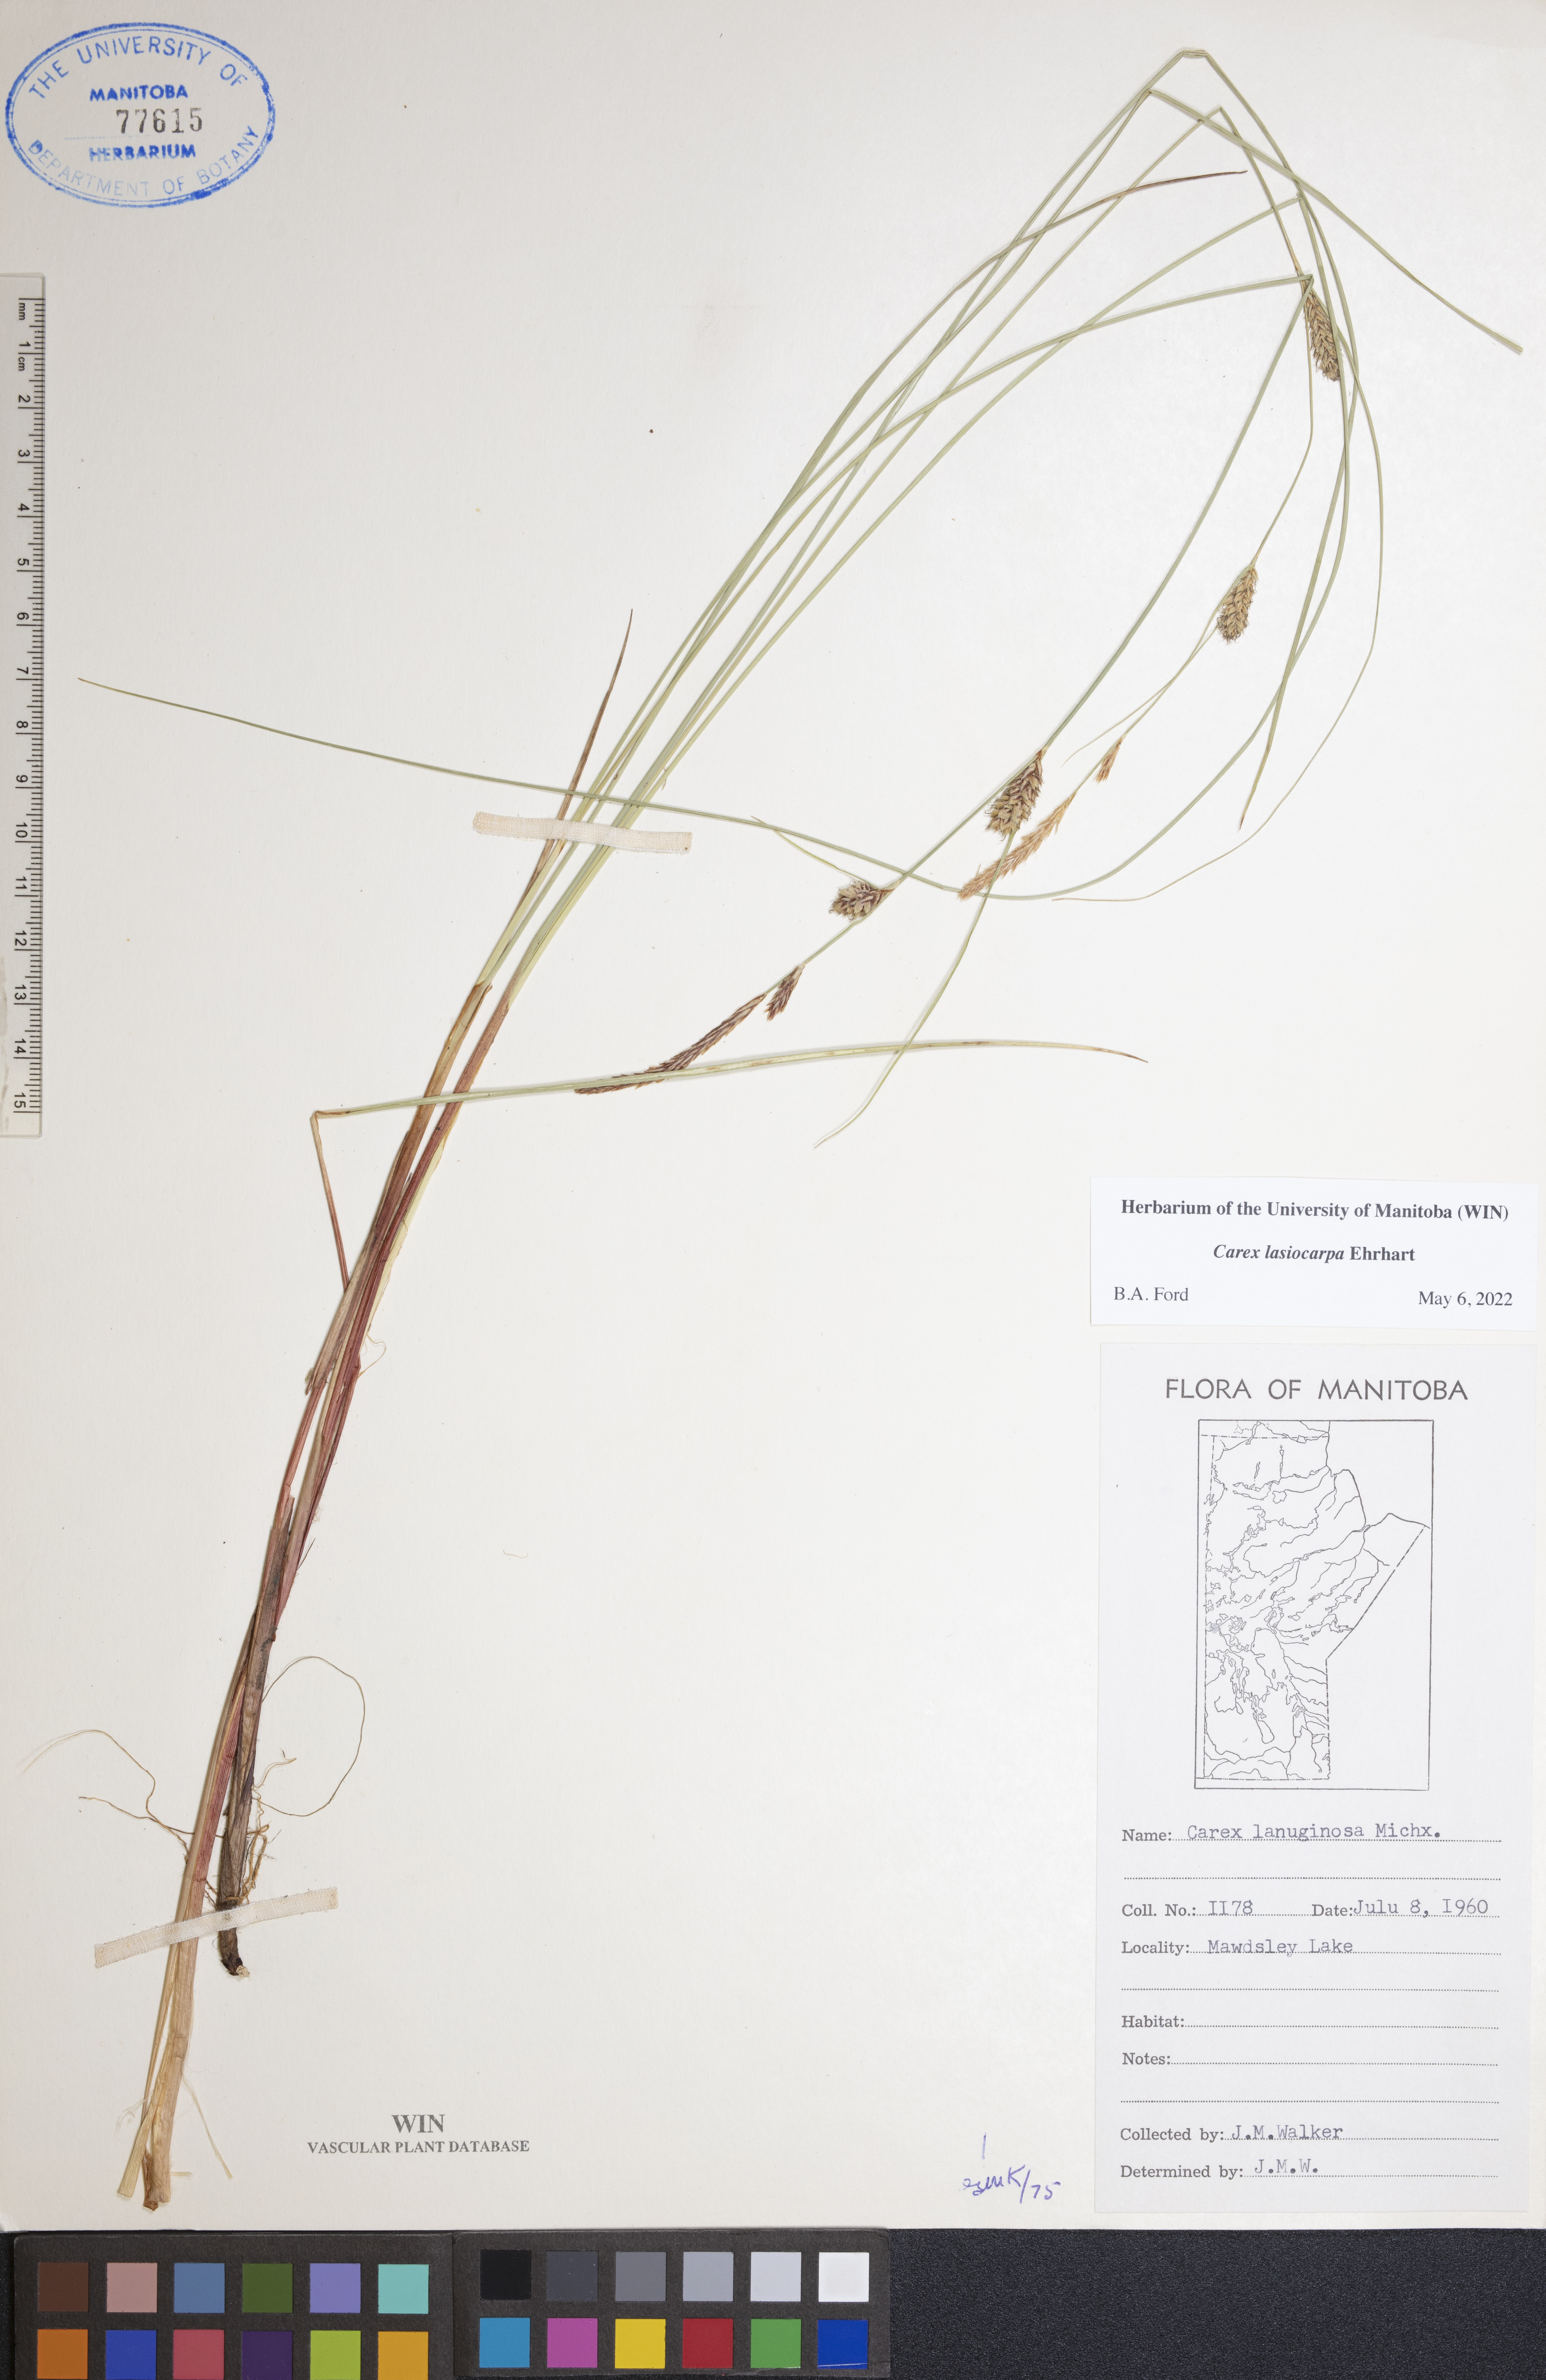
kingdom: Plantae
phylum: Tracheophyta
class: Liliopsida
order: Poales
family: Cyperaceae
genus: Carex
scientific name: Carex lasiocarpa
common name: Slender sedge
